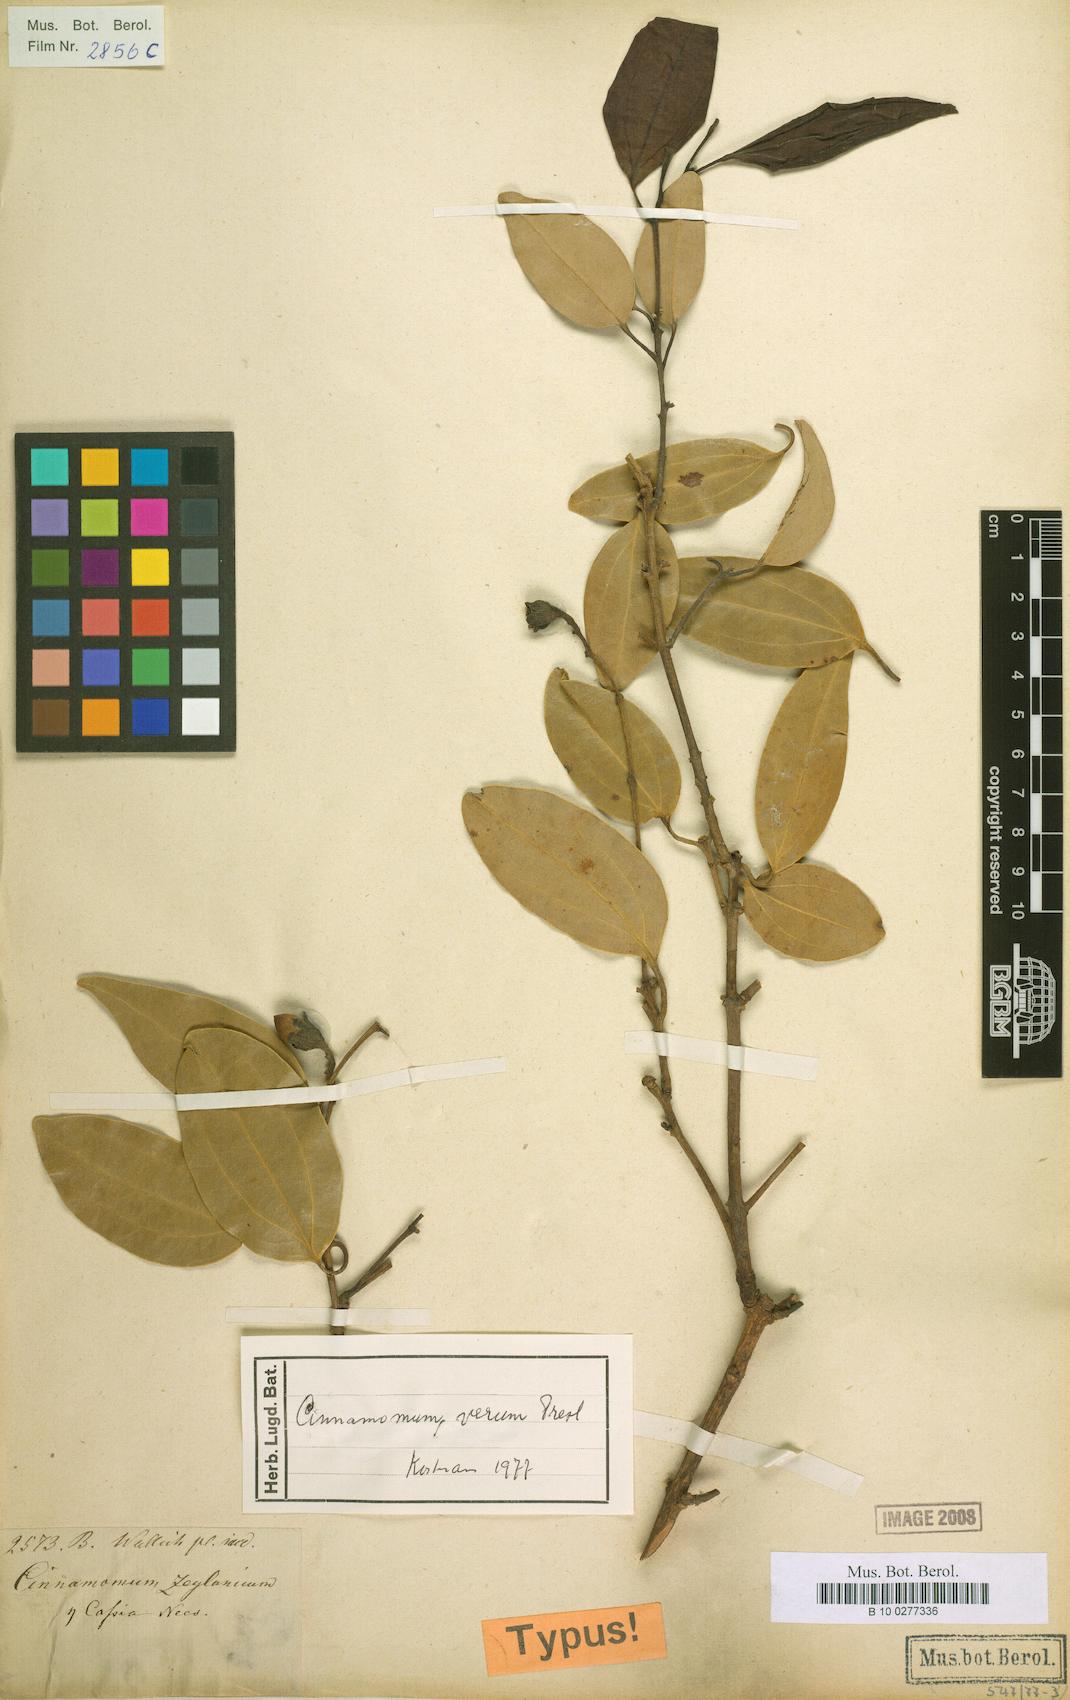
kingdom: Plantae
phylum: Tracheophyta
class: Magnoliopsida
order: Laurales
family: Lauraceae
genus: Cinnamomum
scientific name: Cinnamomum verum
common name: Cinnamon
